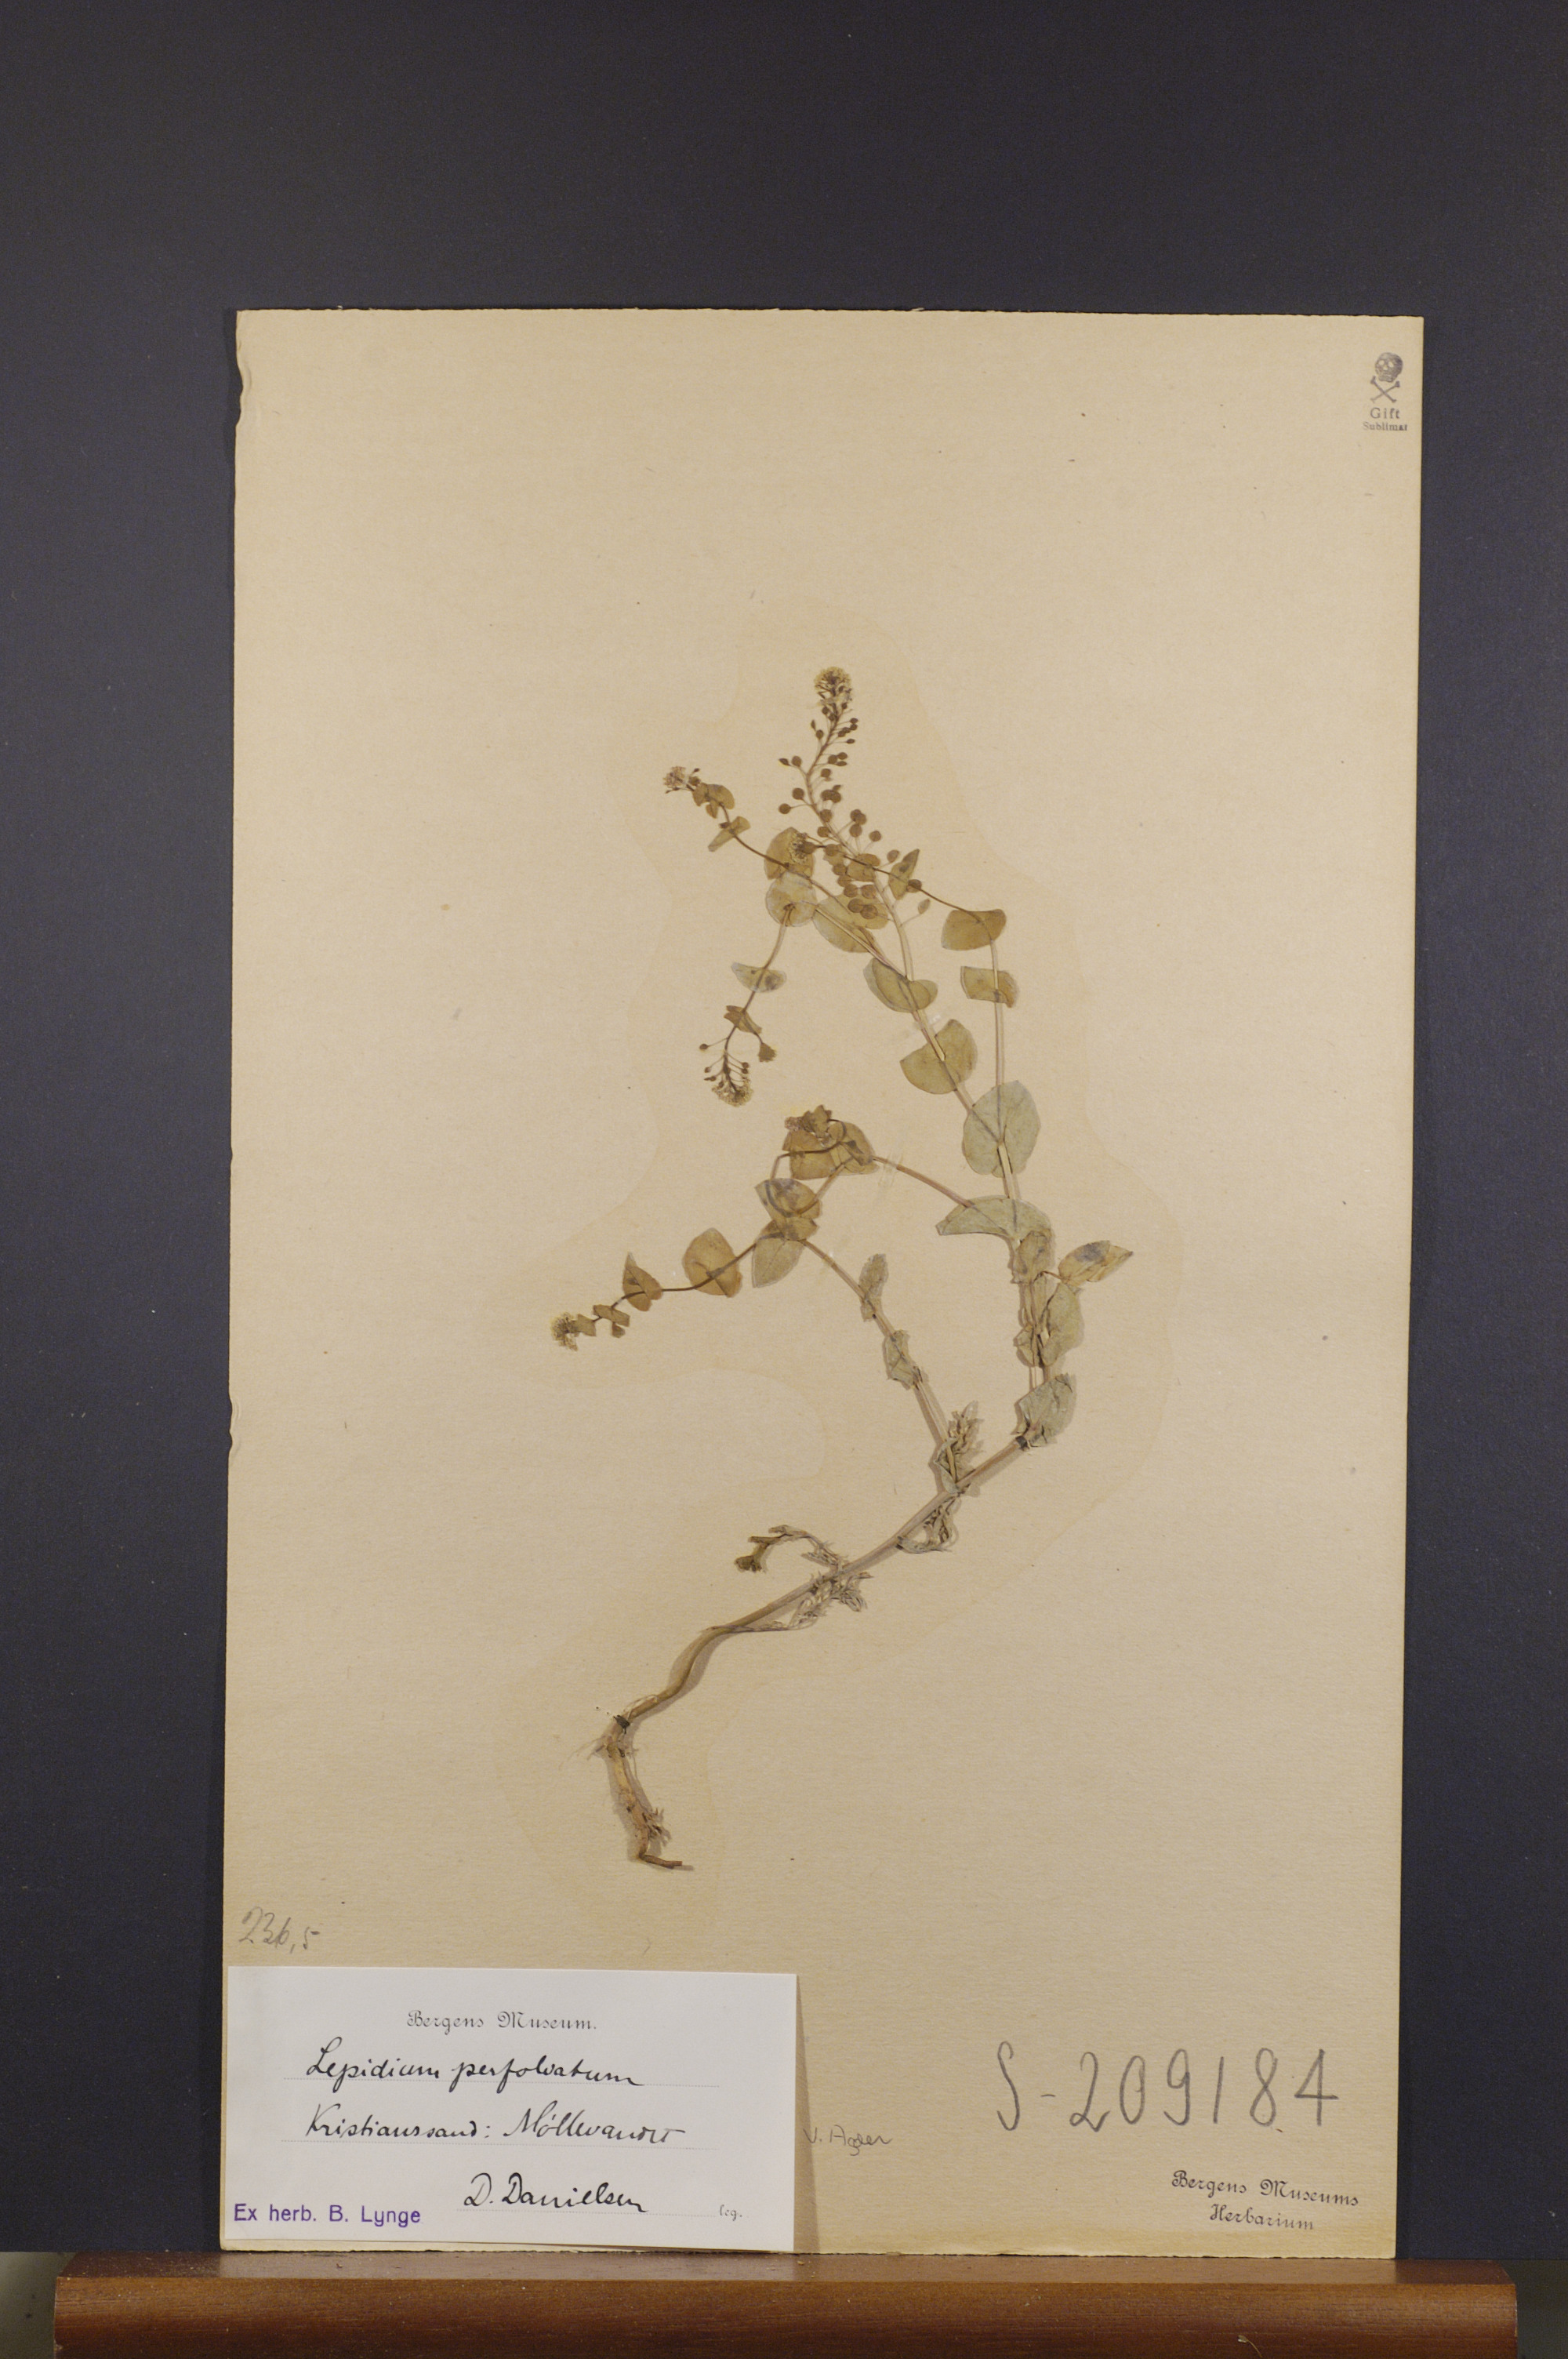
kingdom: Plantae
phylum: Tracheophyta
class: Magnoliopsida
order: Brassicales
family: Brassicaceae
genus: Lepidium
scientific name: Lepidium perfoliatum
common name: Perfoliate pepperwort
